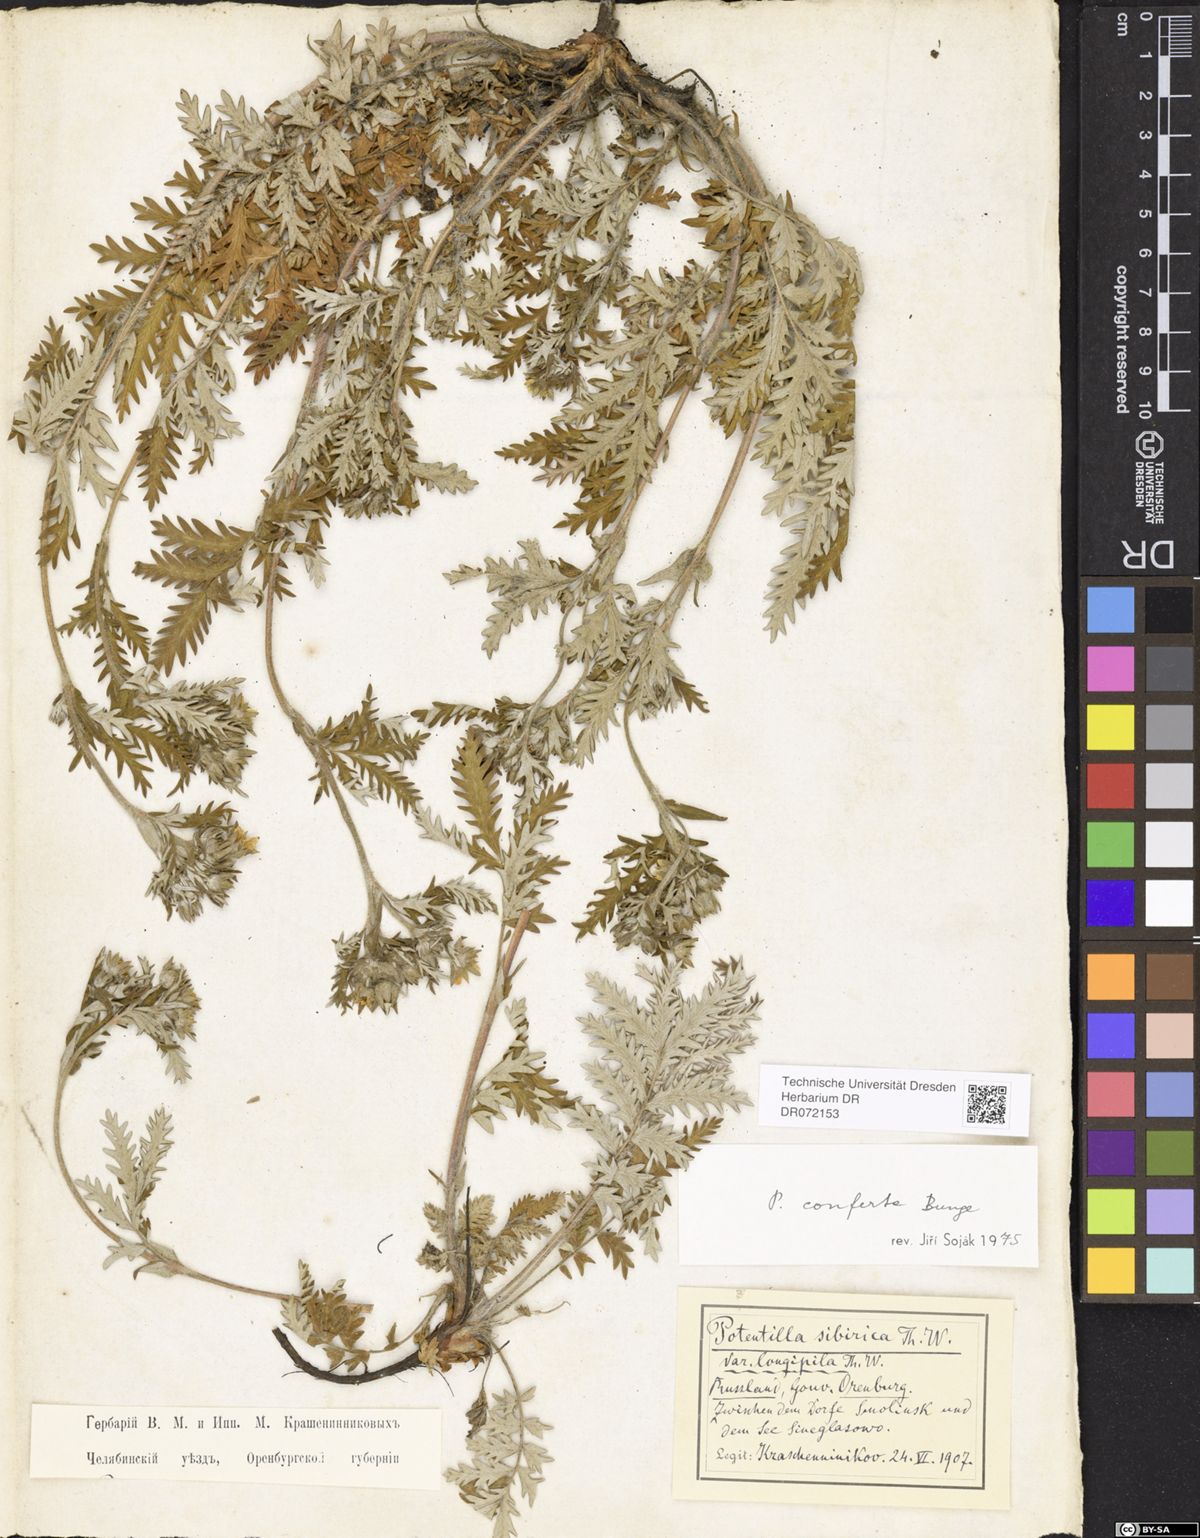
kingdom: Plantae
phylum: Tracheophyta
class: Magnoliopsida
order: Rosales
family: Rosaceae
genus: Potentilla
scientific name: Potentilla conferta
